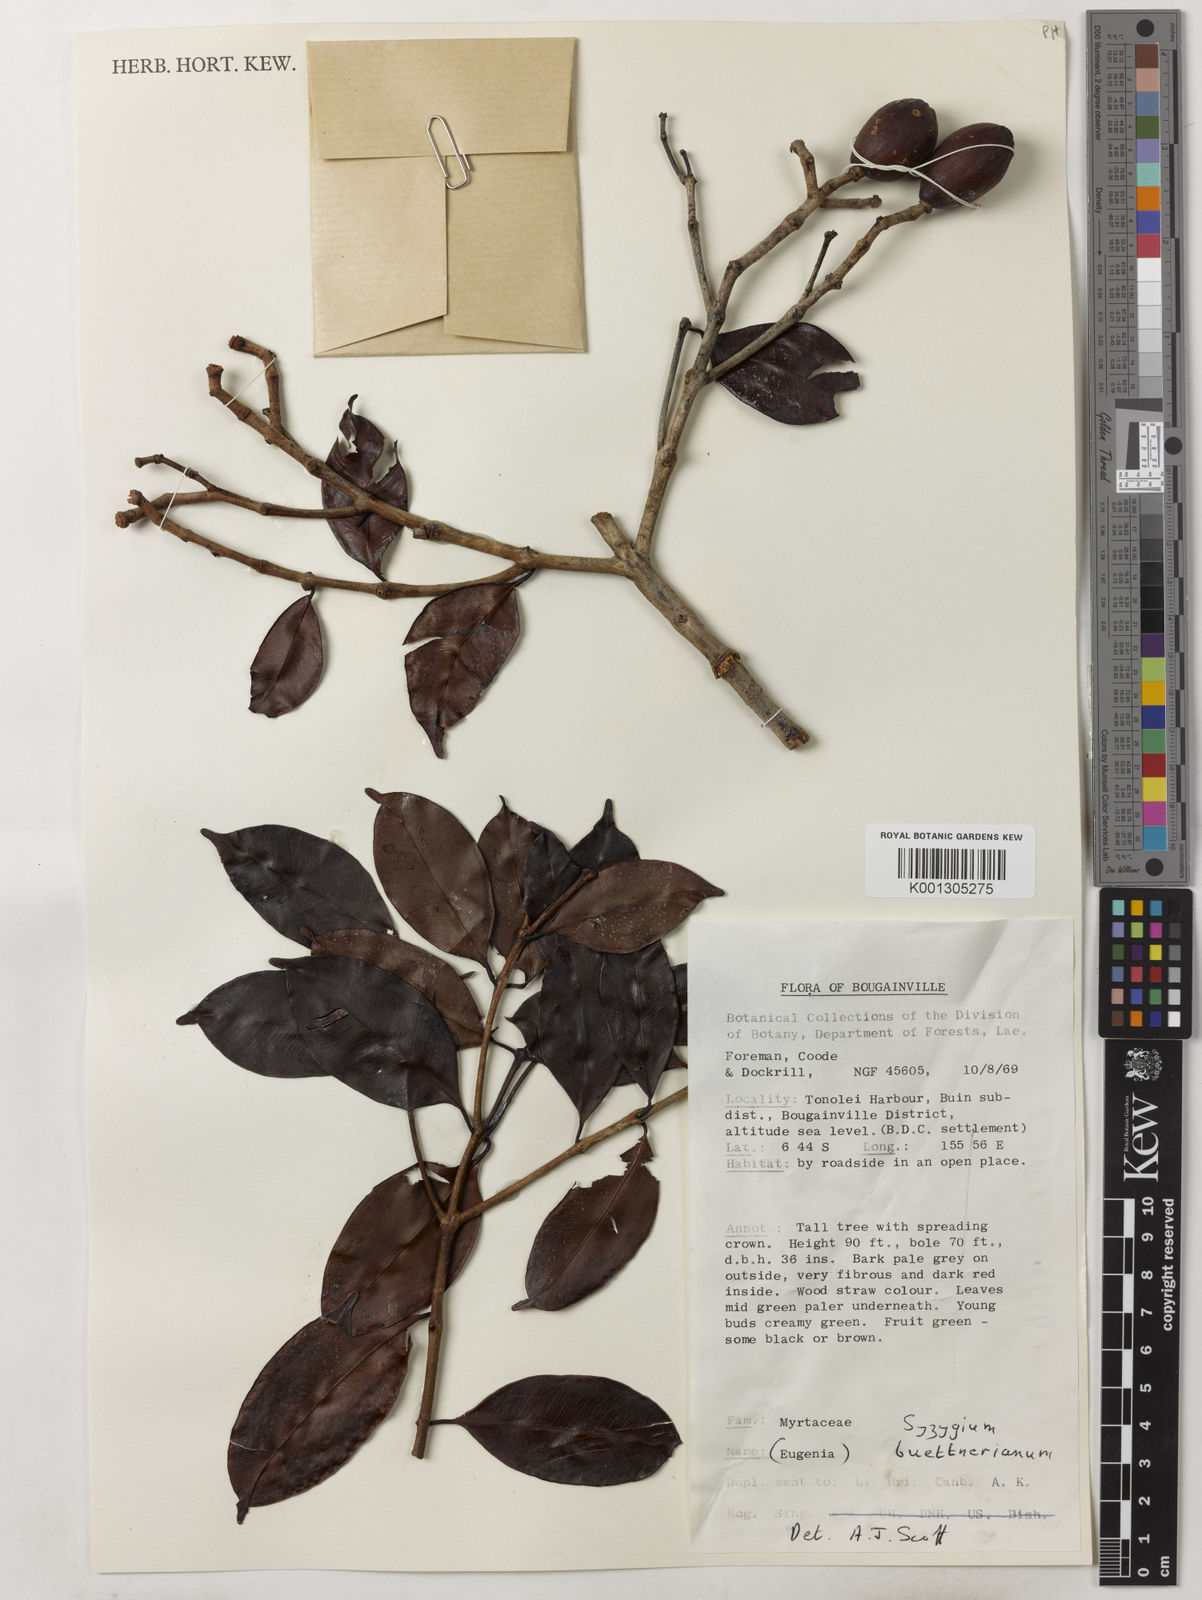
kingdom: Plantae
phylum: Tracheophyta
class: Magnoliopsida
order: Myrtales
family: Myrtaceae
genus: Syzygium
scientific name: Syzygium buettnerianum
